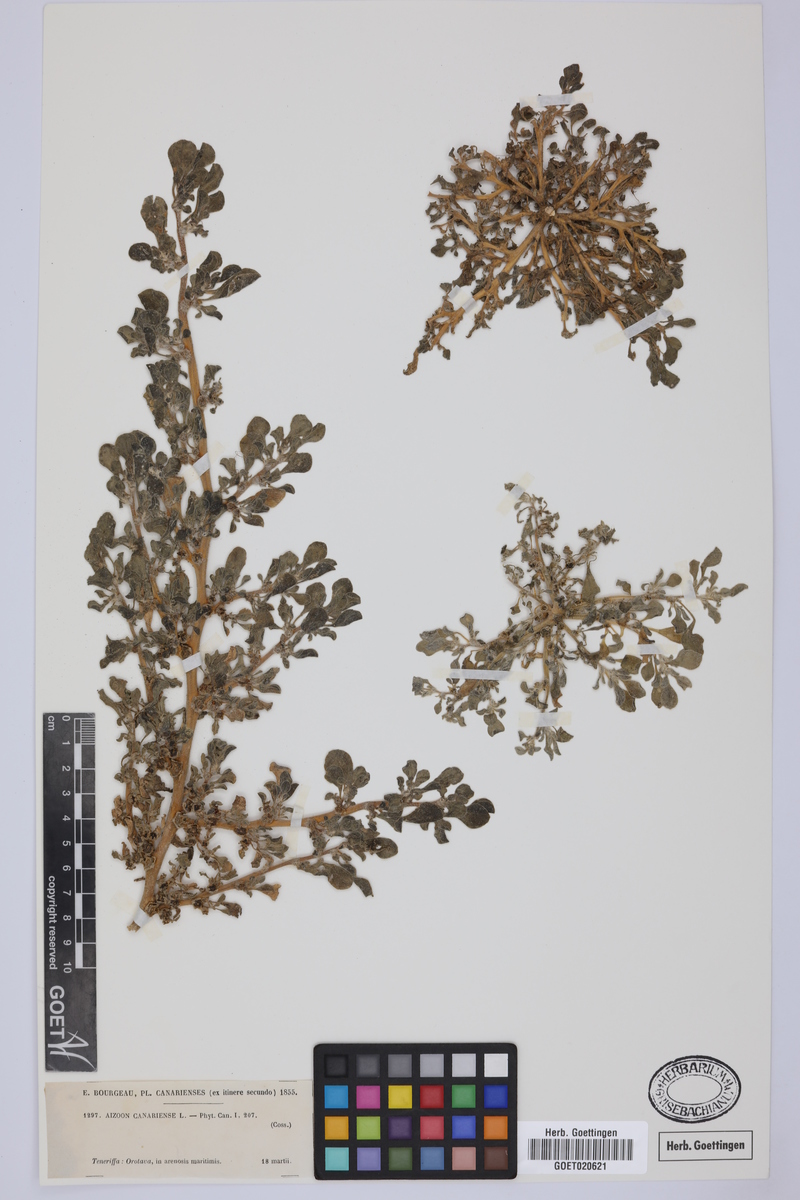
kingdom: Plantae
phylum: Tracheophyta
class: Magnoliopsida
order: Caryophyllales
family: Aizoaceae
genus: Aizoon
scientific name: Aizoon canariense
